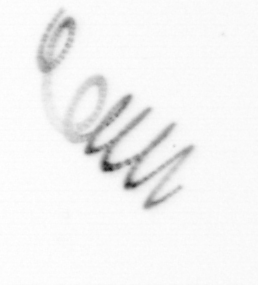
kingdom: Chromista
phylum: Ochrophyta
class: Bacillariophyceae
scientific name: Bacillariophyceae
